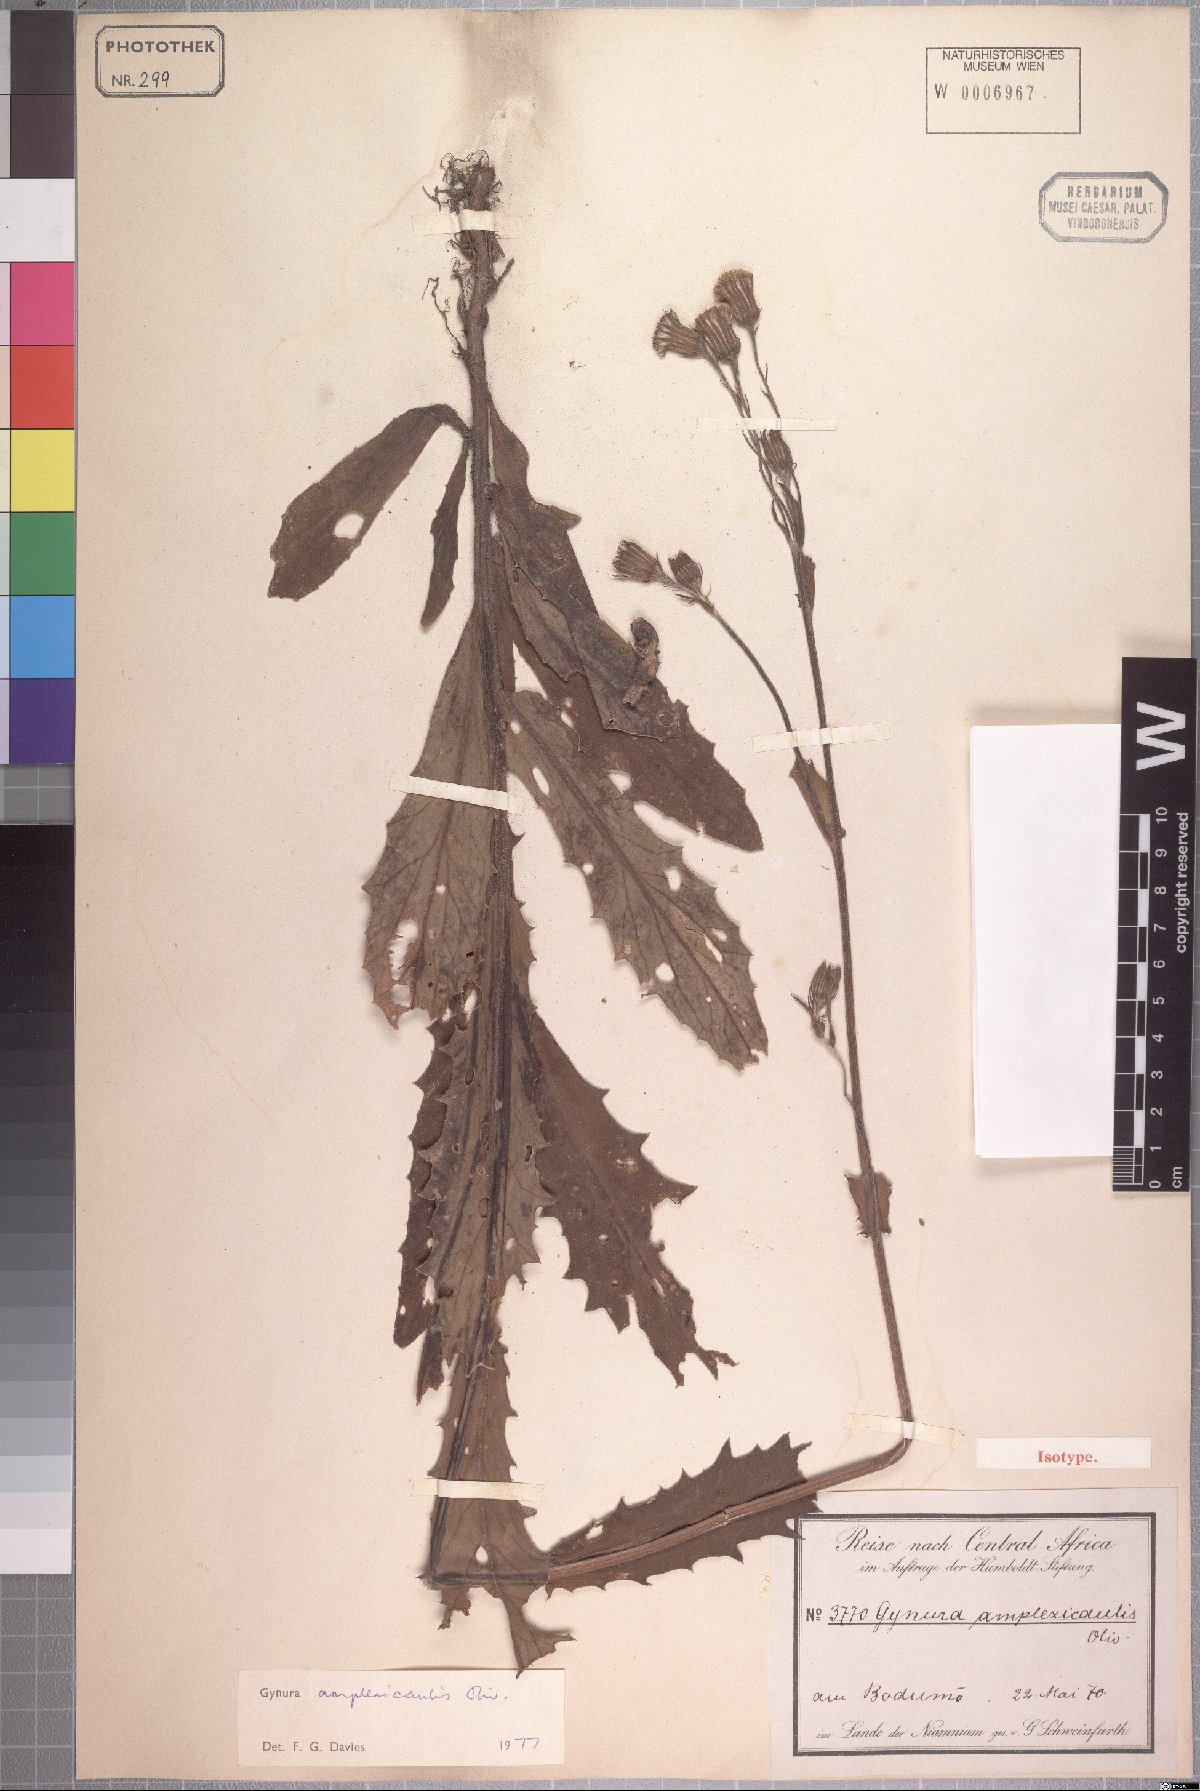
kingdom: Plantae
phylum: Tracheophyta
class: Magnoliopsida
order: Asterales
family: Asteraceae
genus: Gynura
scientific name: Gynura amplexicaulis
